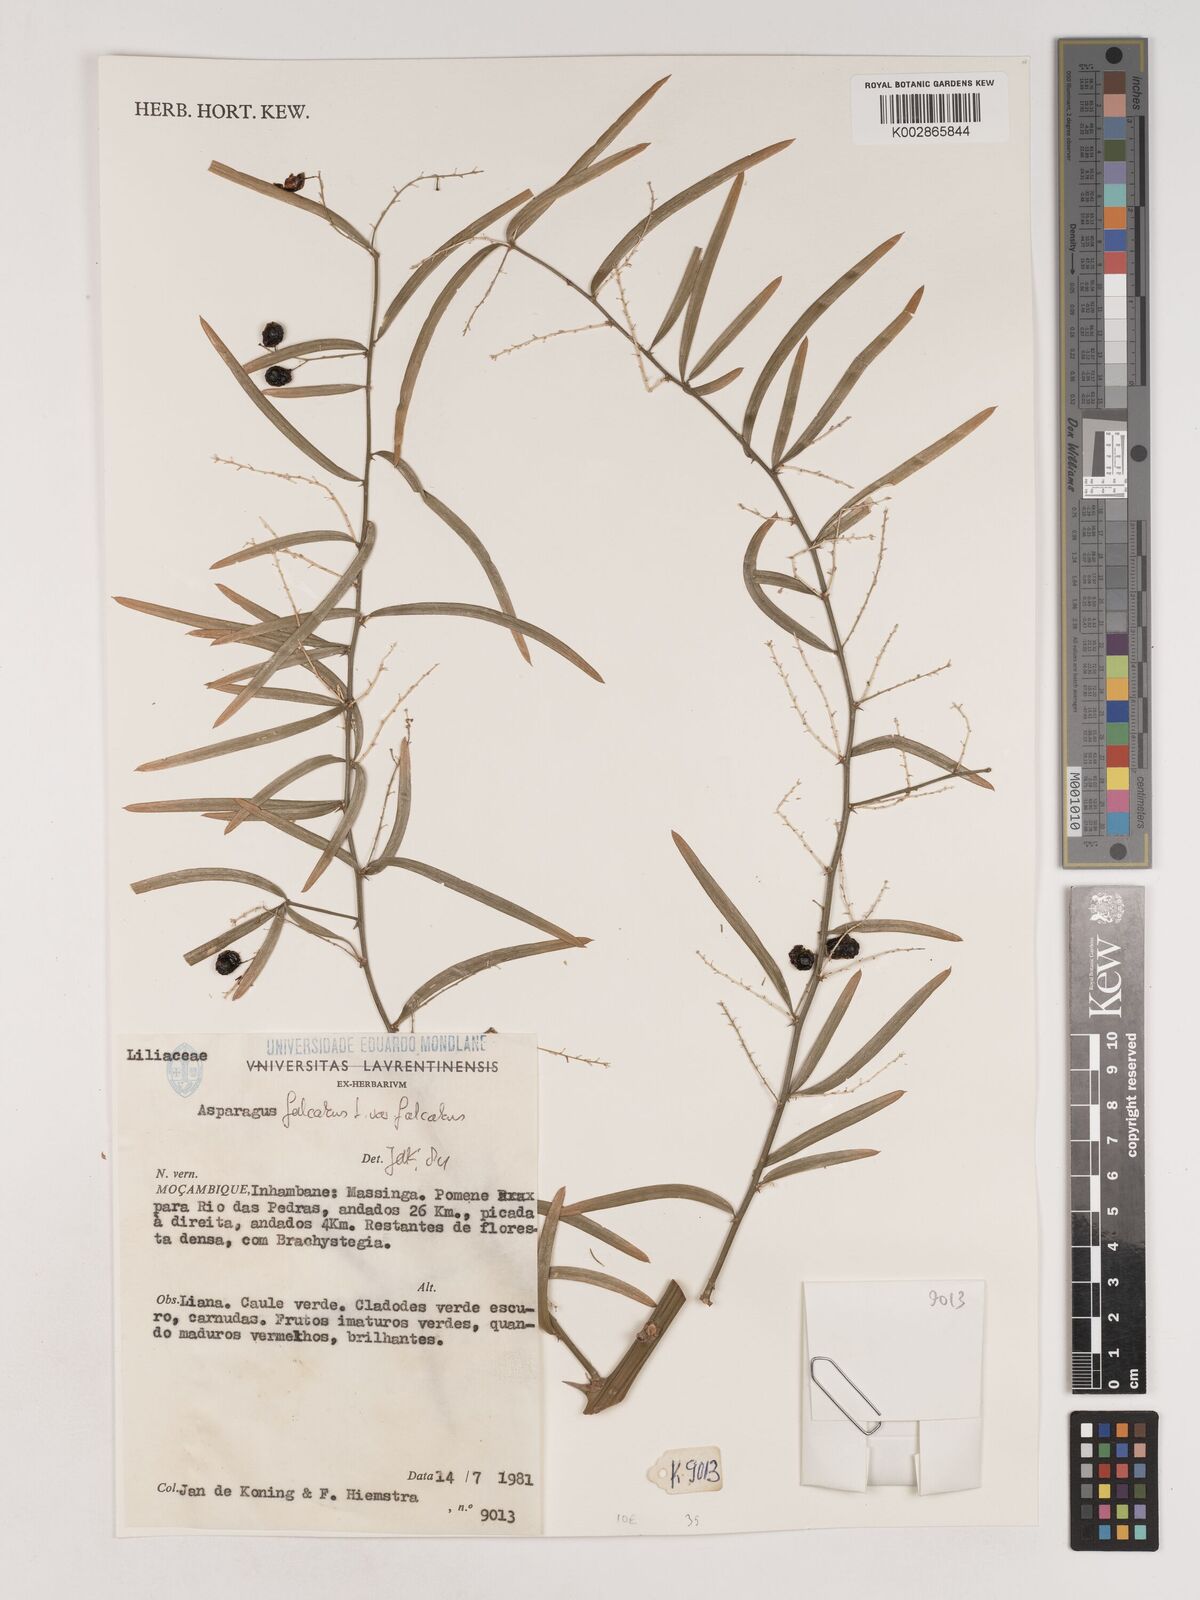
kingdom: Plantae
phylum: Tracheophyta
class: Liliopsida
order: Asparagales
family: Asparagaceae
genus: Asparagus
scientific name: Asparagus falcatus
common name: Asparagus
